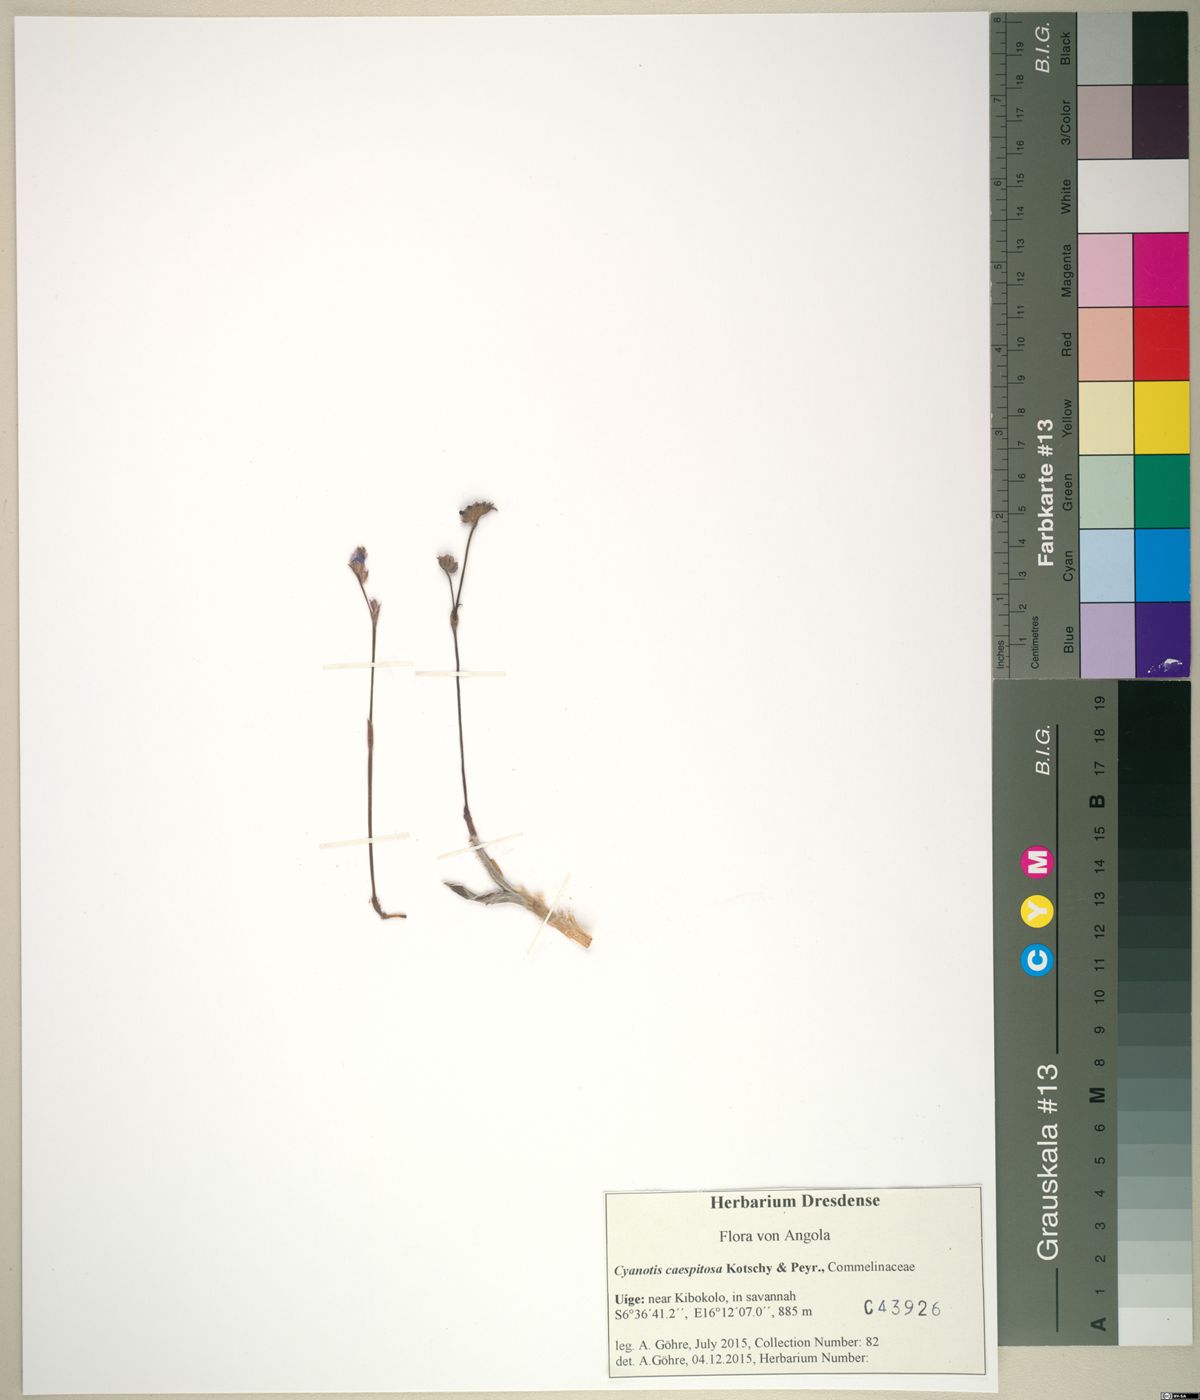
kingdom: Plantae
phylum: Tracheophyta
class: Liliopsida
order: Commelinales
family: Commelinaceae
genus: Cyanotis
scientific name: Cyanotis caespitosa
